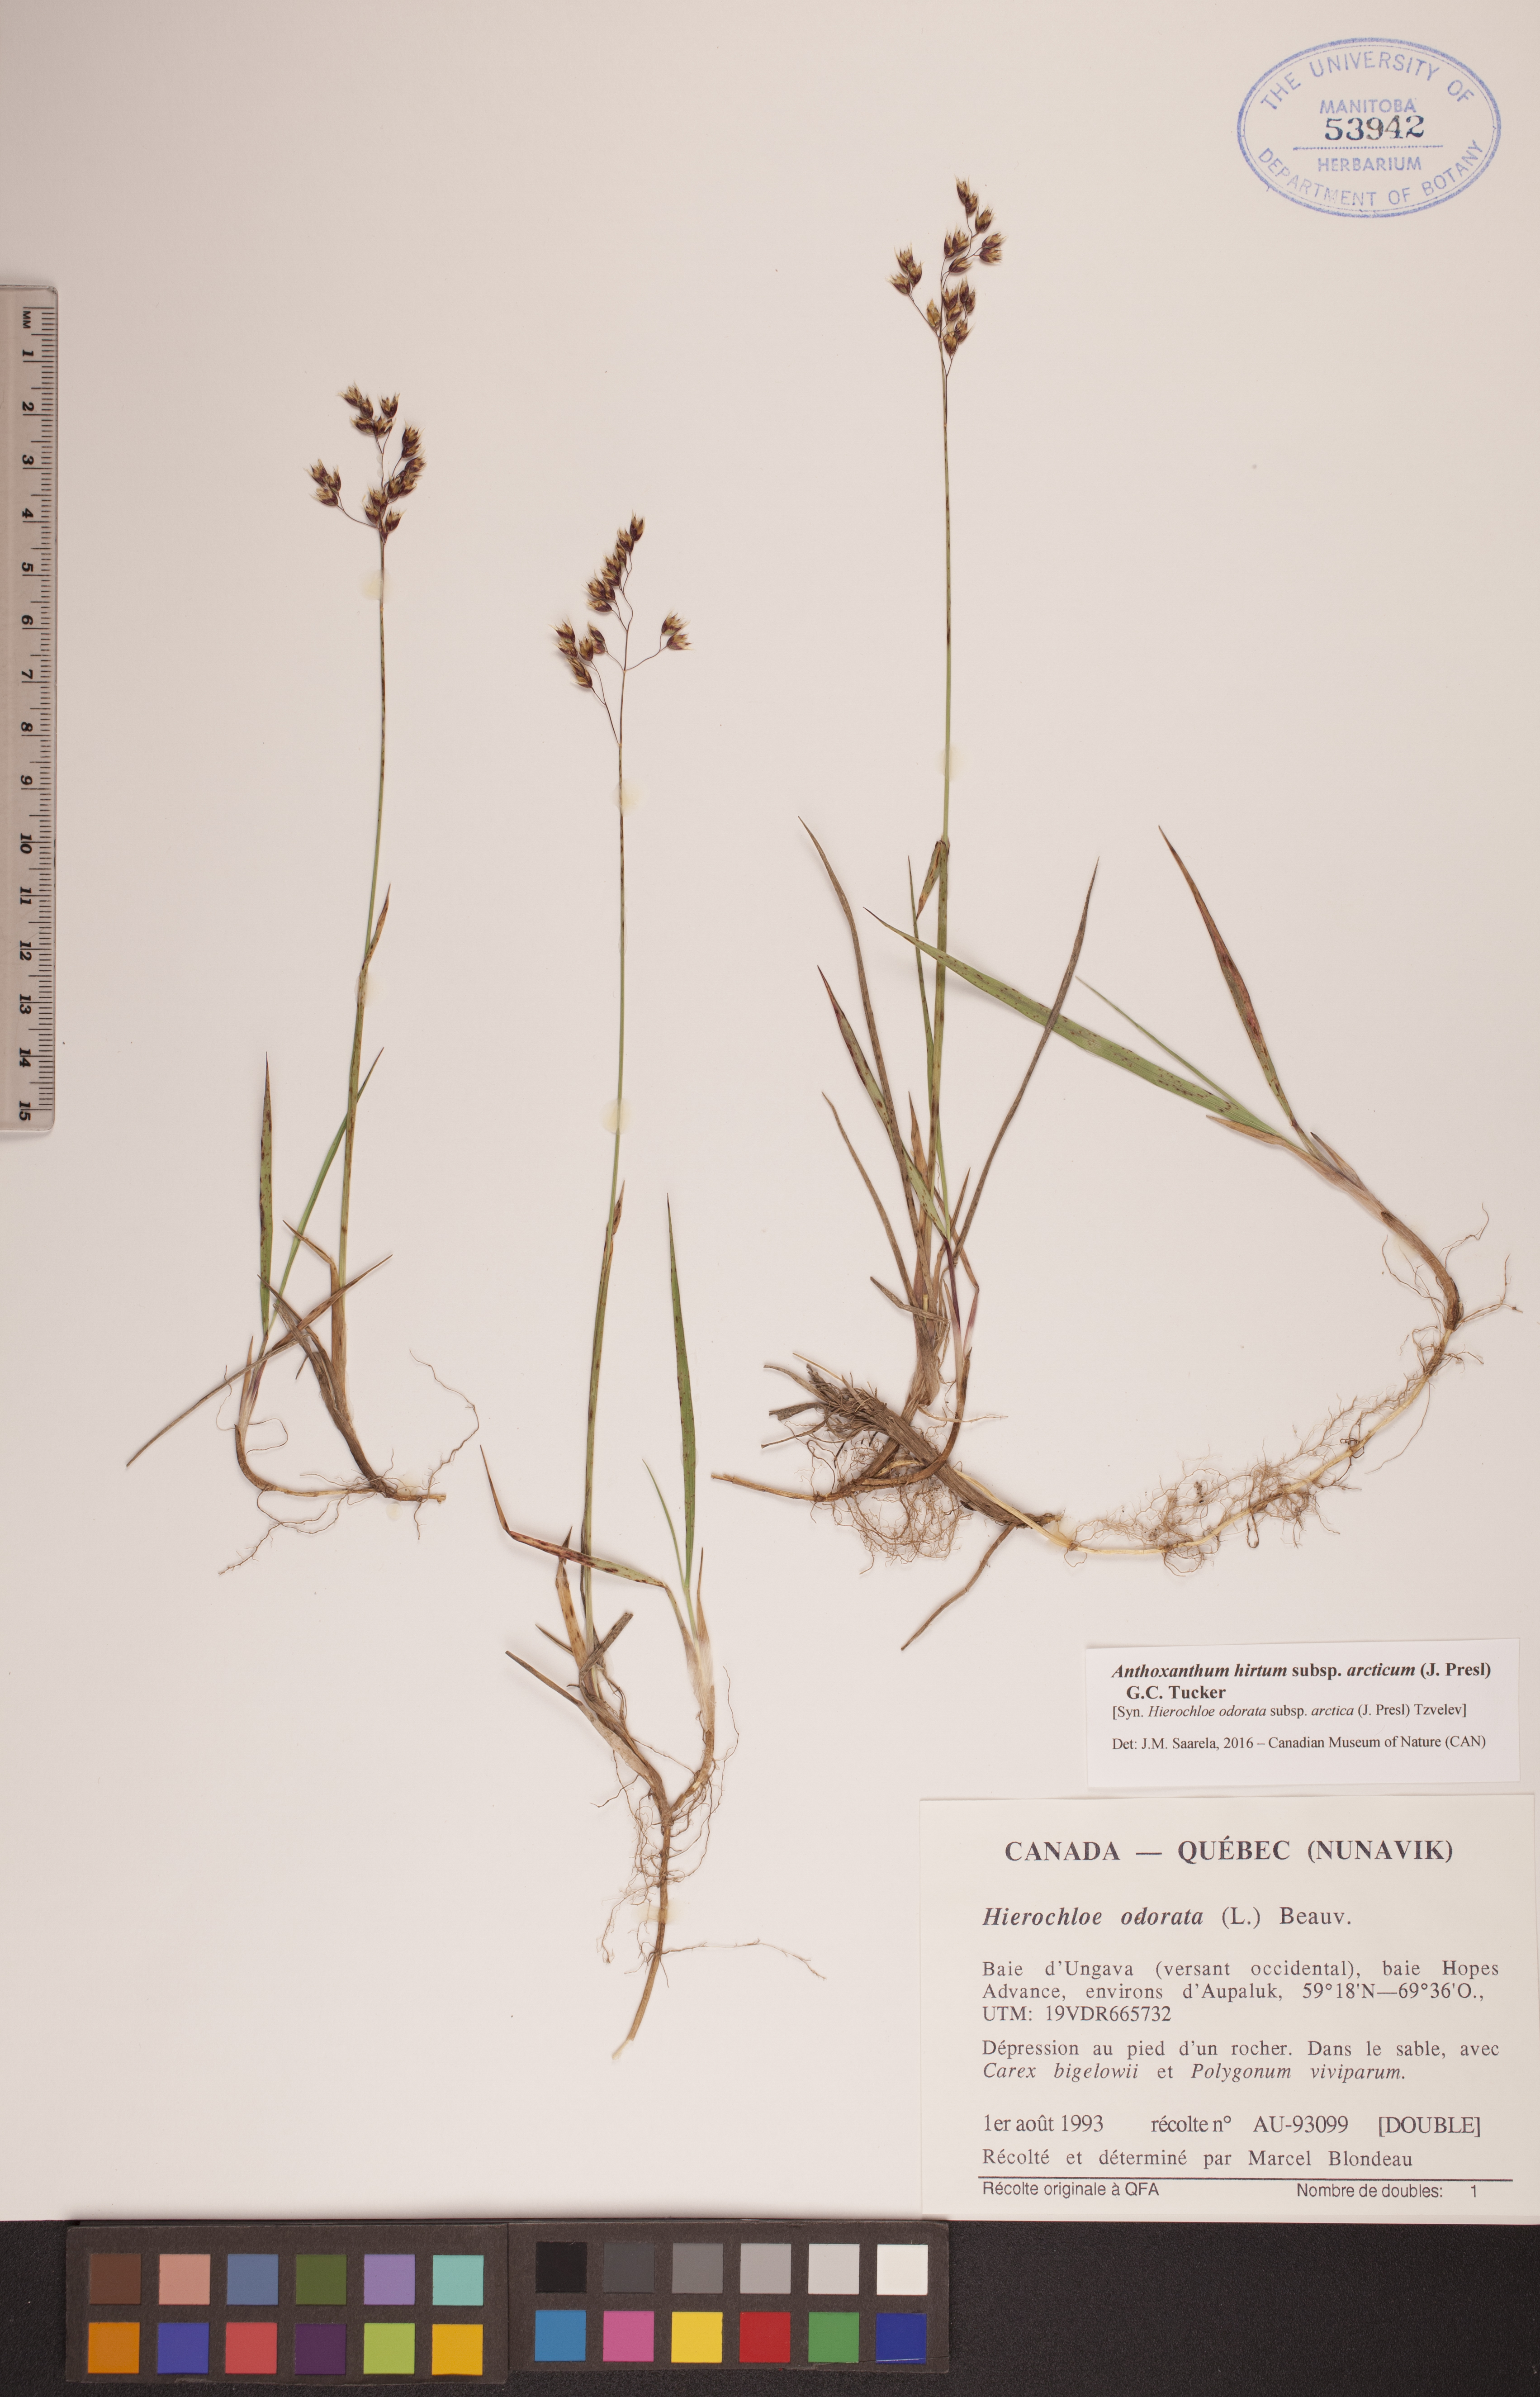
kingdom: Plantae
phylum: Tracheophyta
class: Liliopsida
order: Poales
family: Poaceae
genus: Anthoxanthum
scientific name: Anthoxanthum nitens
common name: Holy grass
